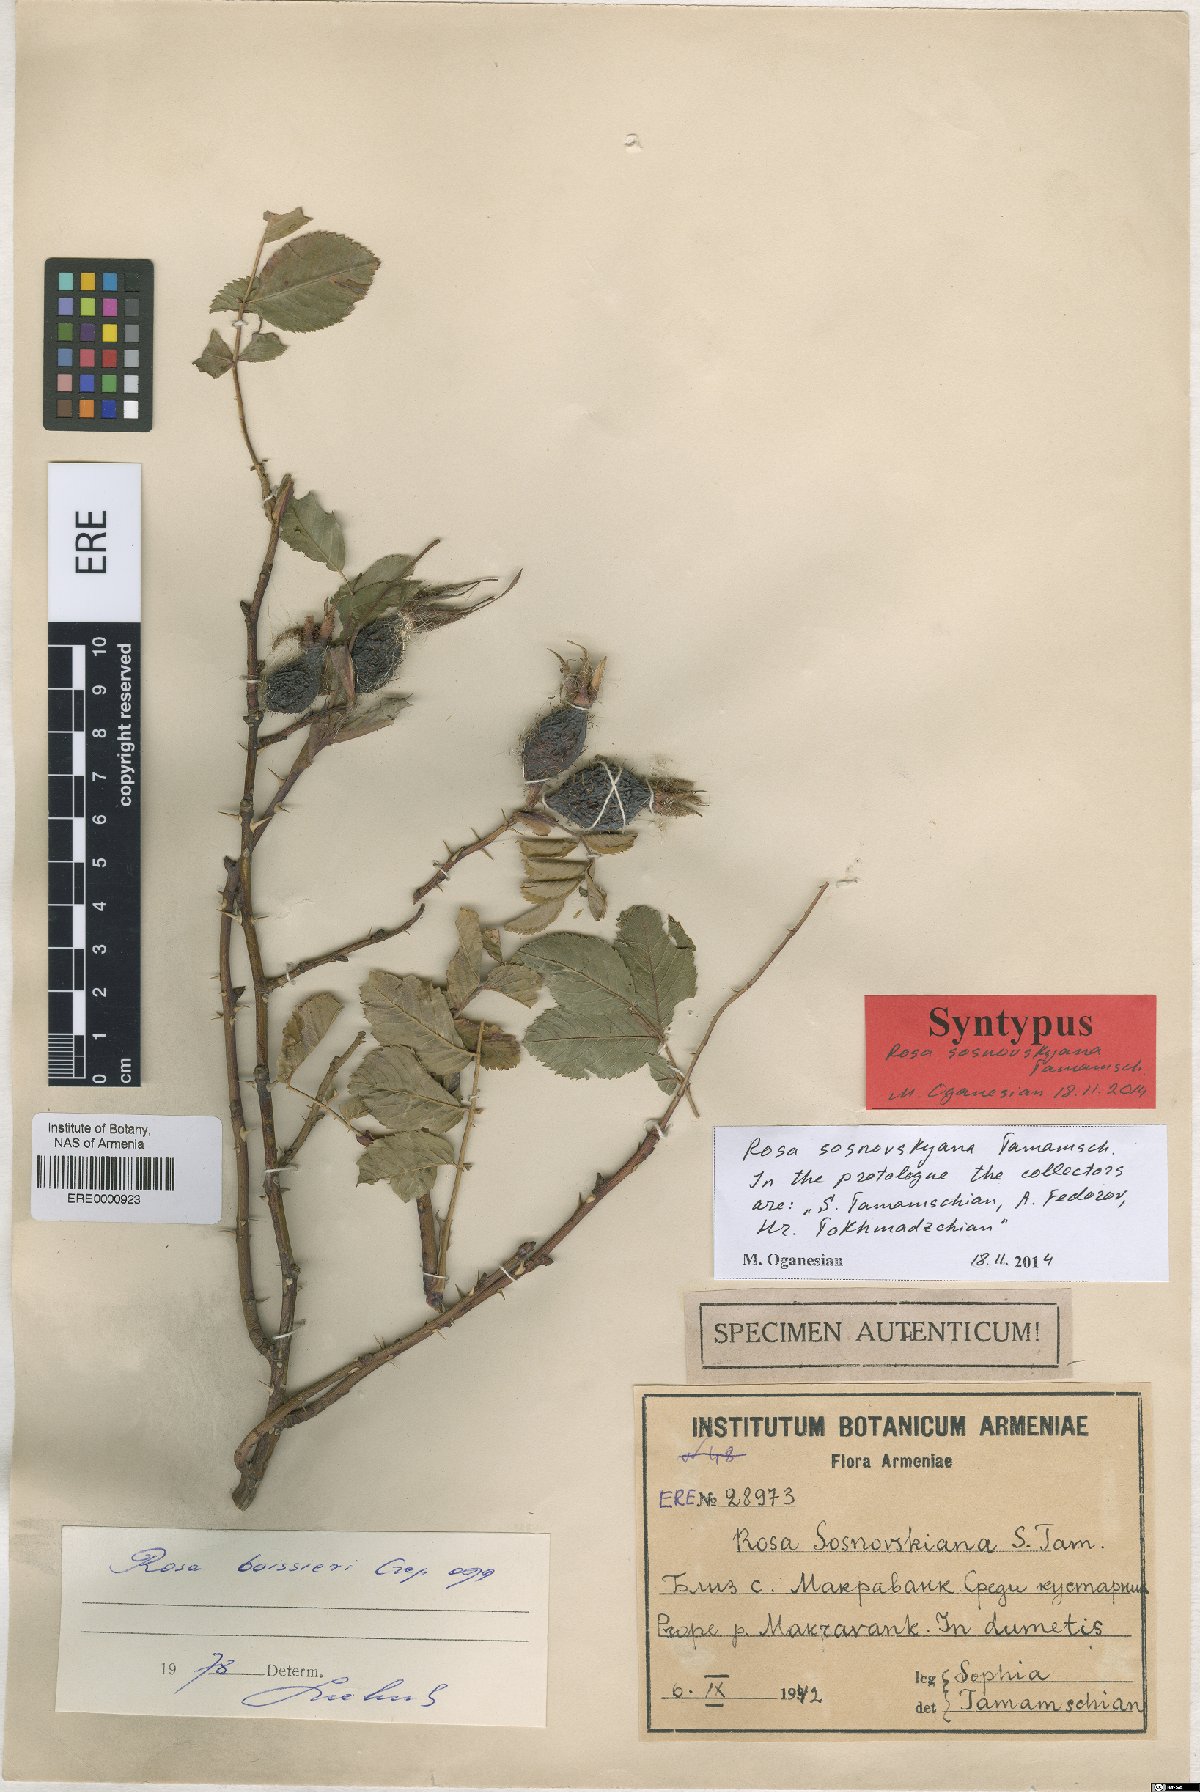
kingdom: Plantae
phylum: Tracheophyta
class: Magnoliopsida
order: Rosales
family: Rosaceae
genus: Rosa
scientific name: Rosa boissieri
